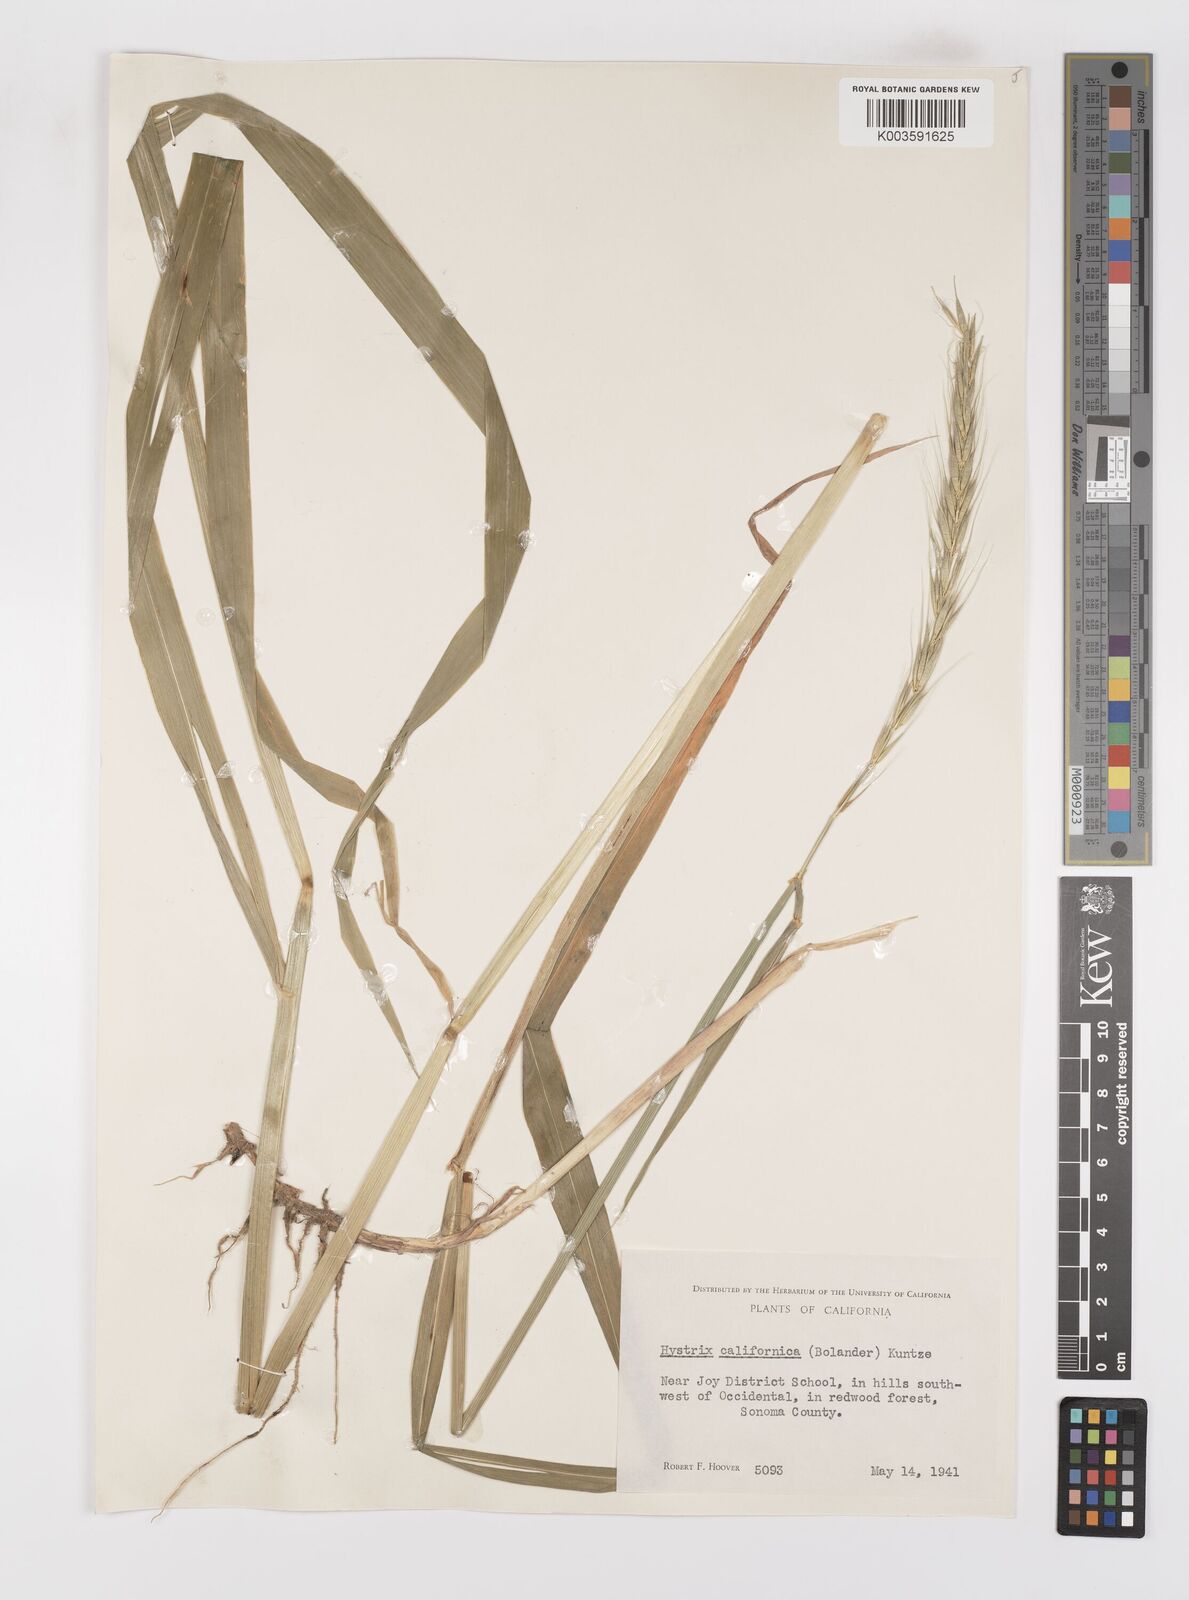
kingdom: Plantae
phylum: Tracheophyta
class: Liliopsida
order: Poales
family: Poaceae
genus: Leymus
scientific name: Leymus
